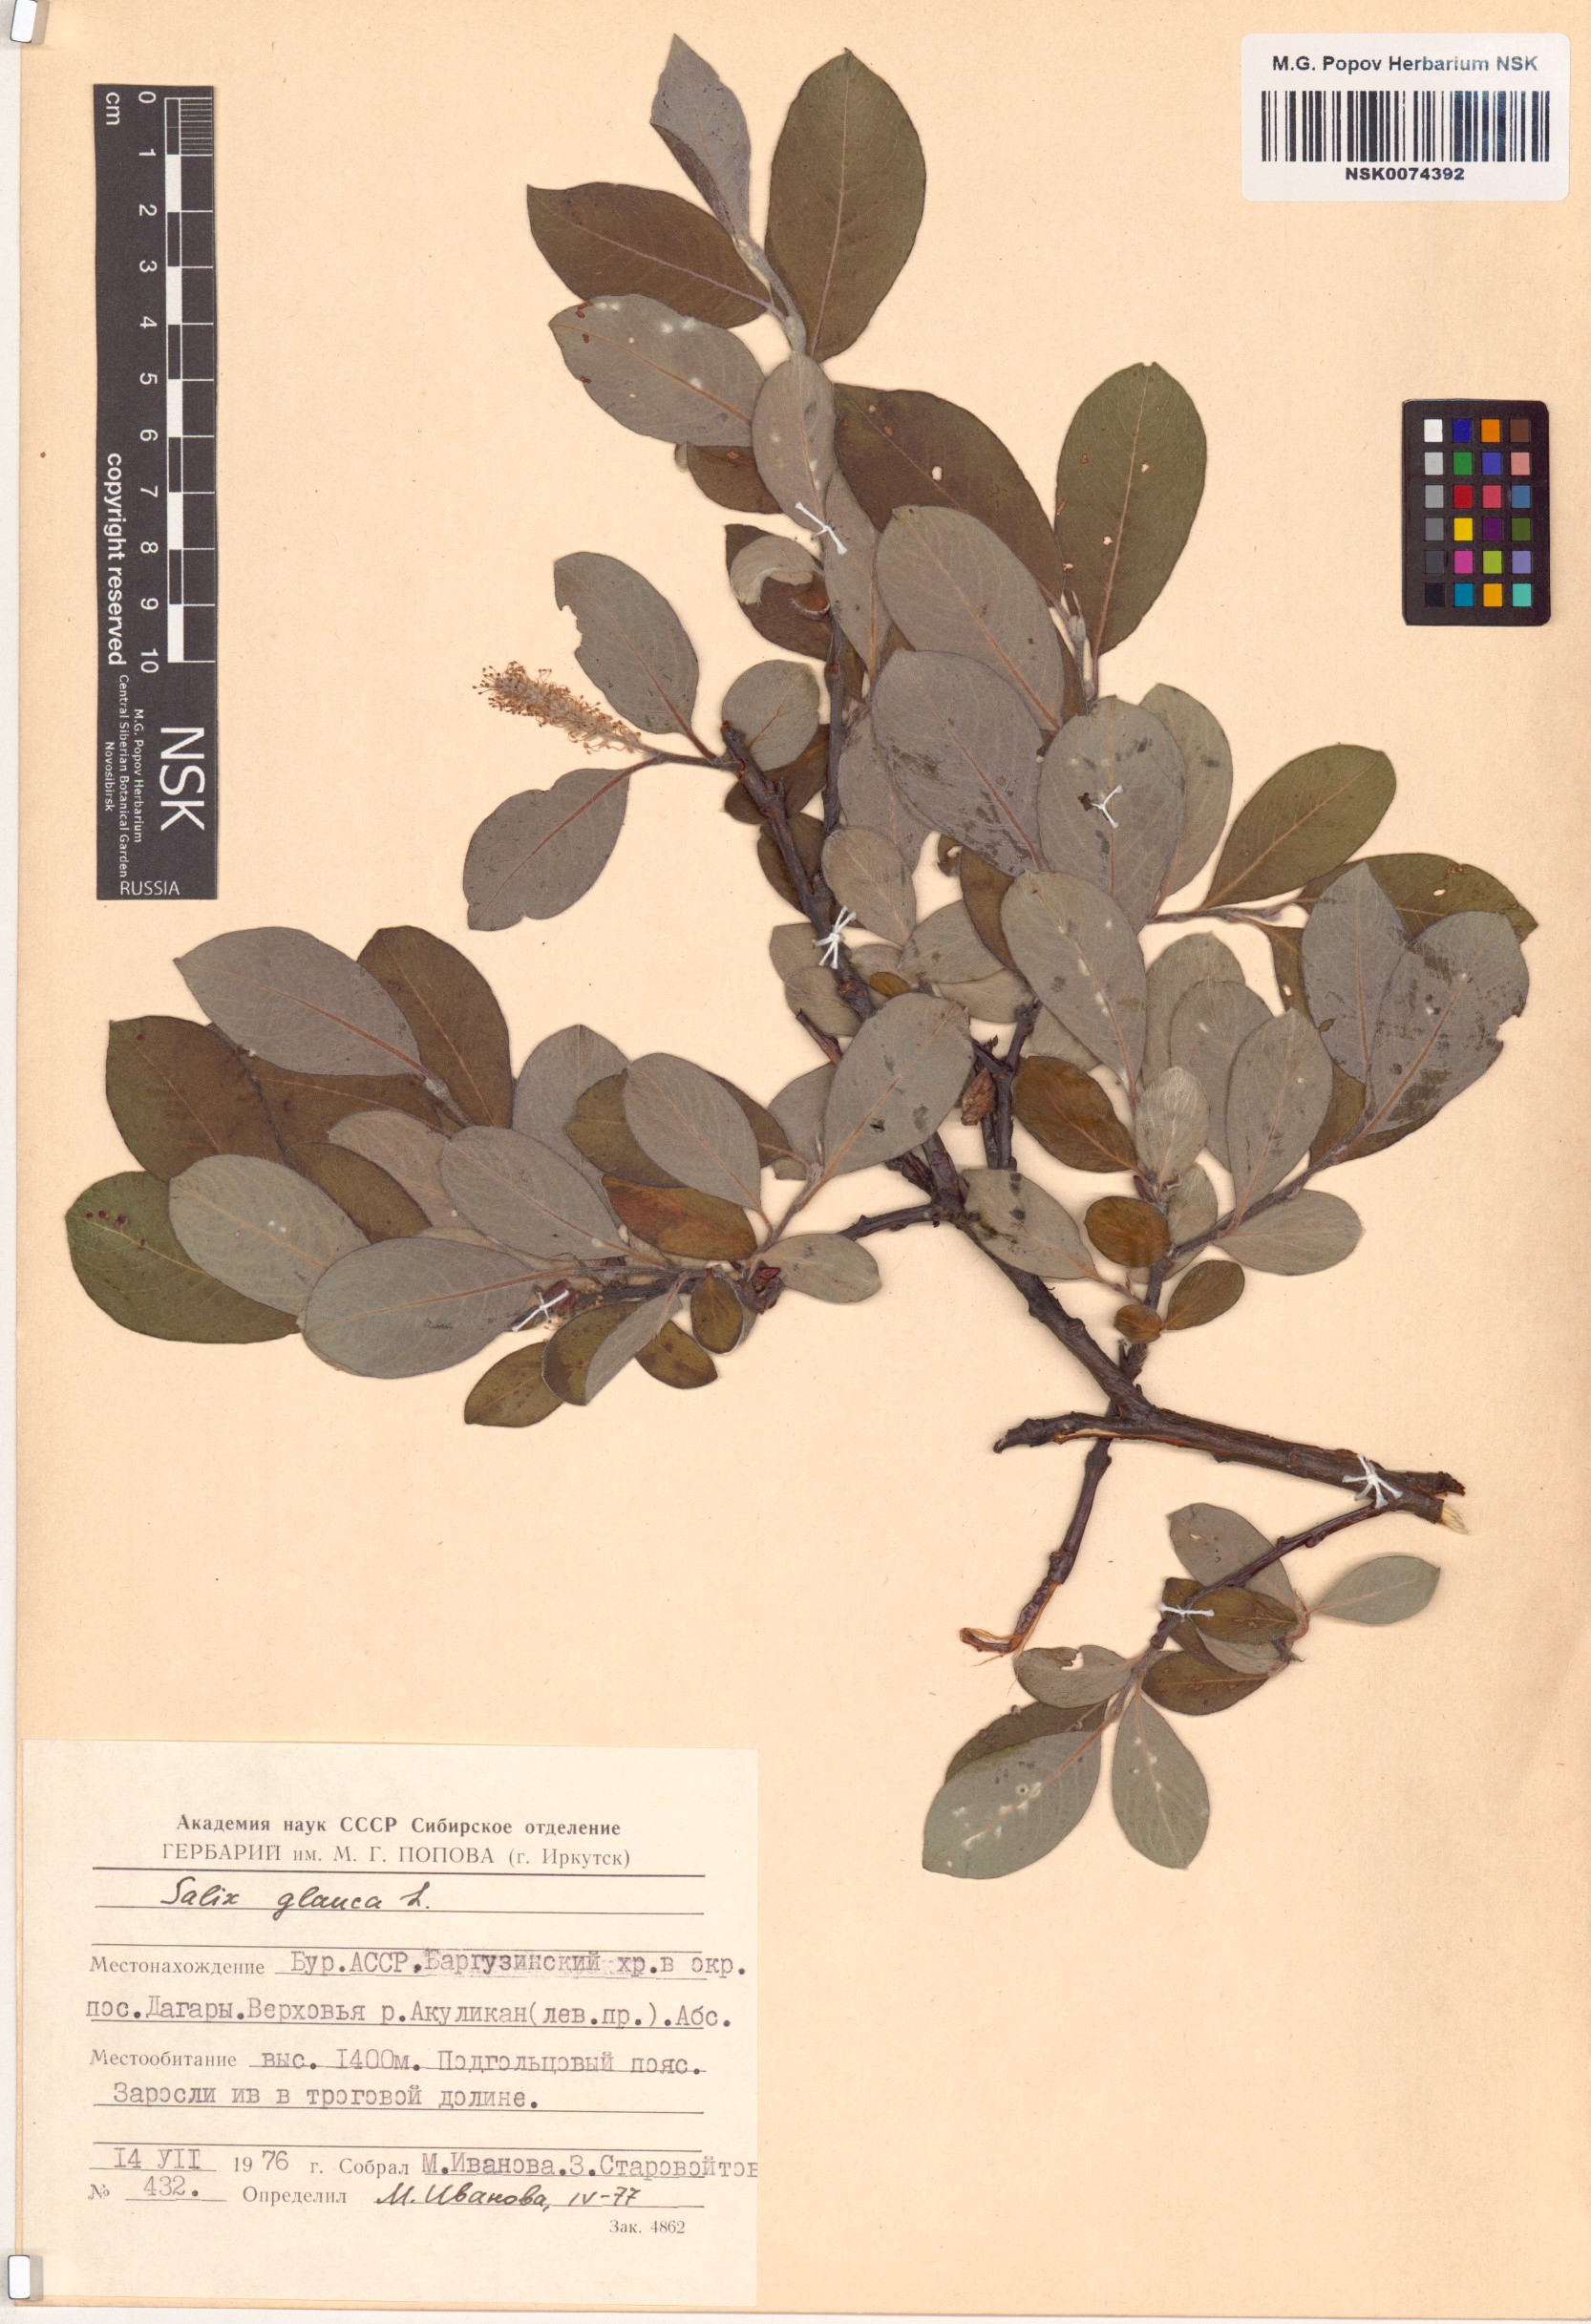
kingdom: Plantae
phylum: Tracheophyta
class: Magnoliopsida
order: Malpighiales
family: Salicaceae
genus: Salix
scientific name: Salix glauca
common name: Glaucous willow
